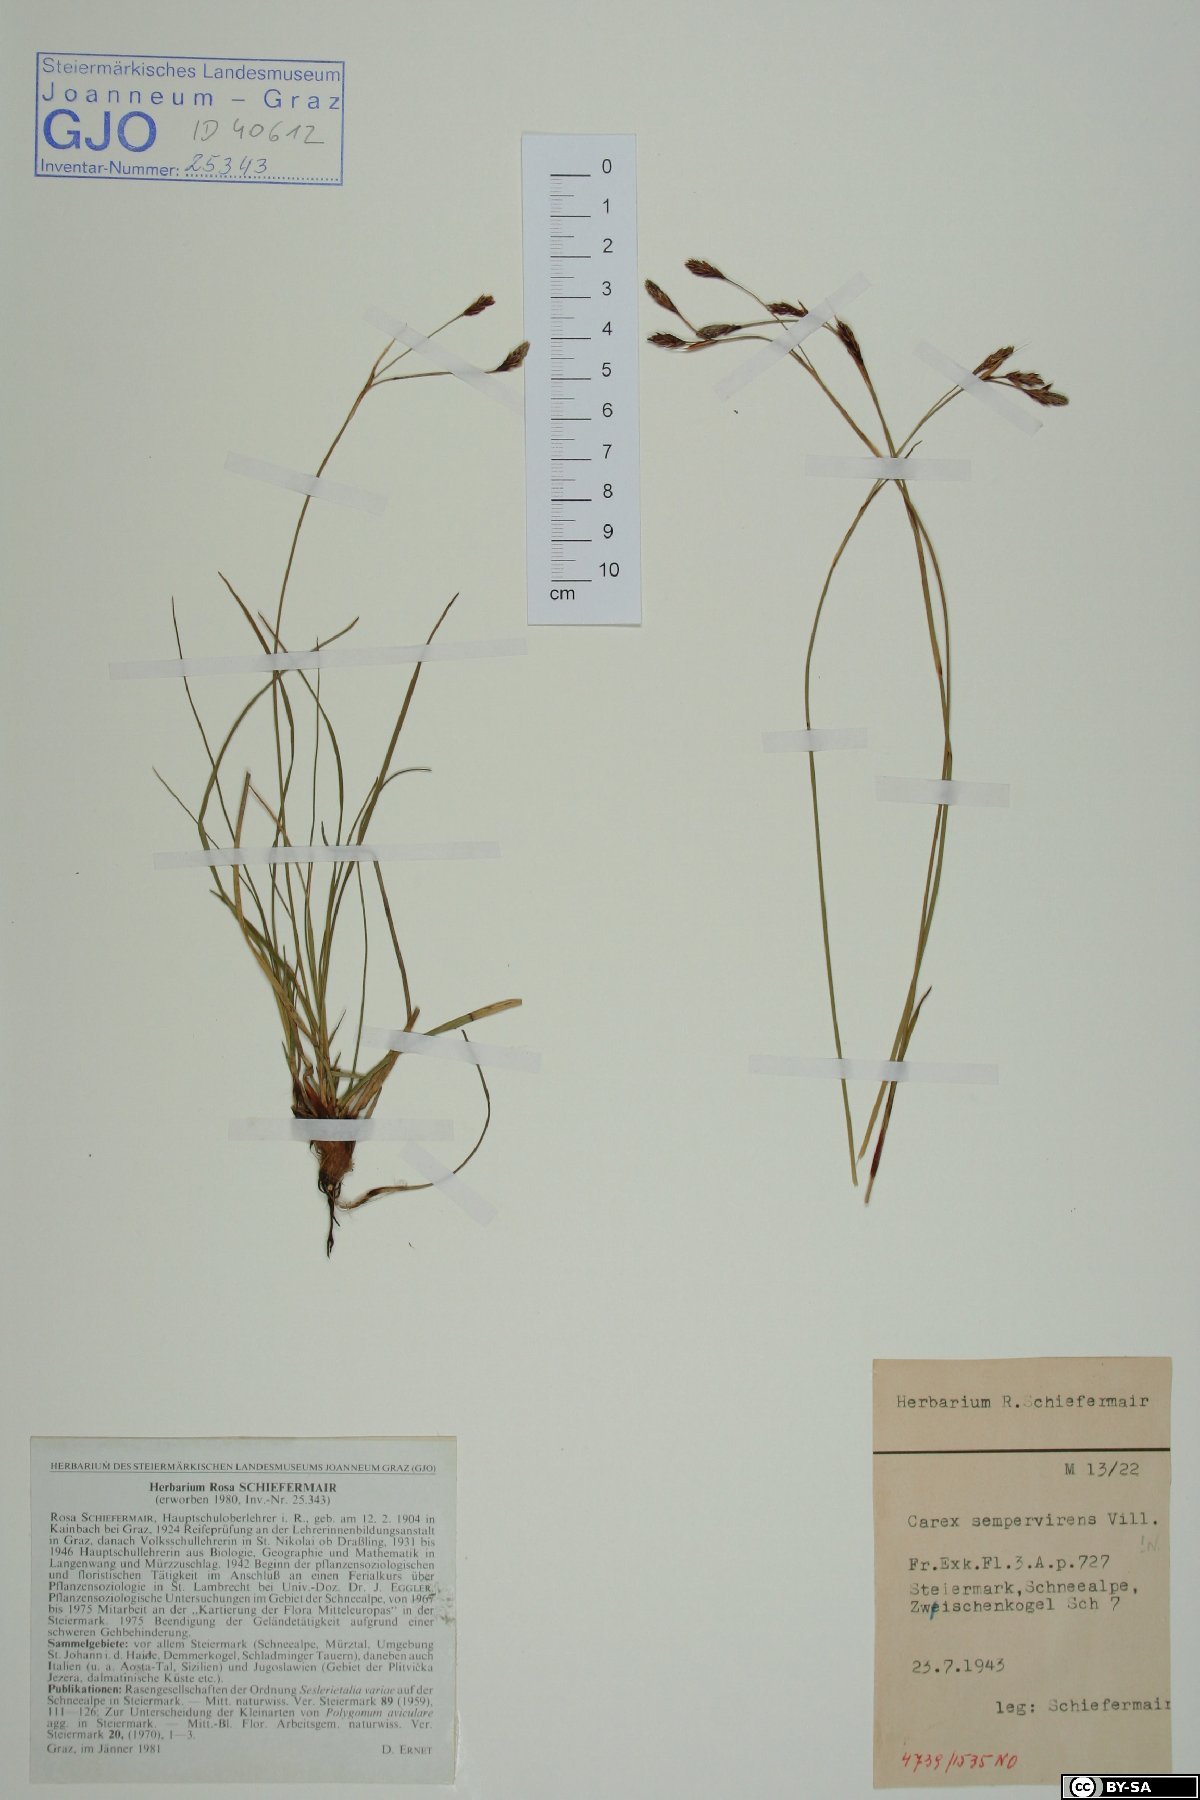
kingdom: Plantae
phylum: Tracheophyta
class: Liliopsida
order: Poales
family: Cyperaceae
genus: Carex
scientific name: Carex sempervirens
